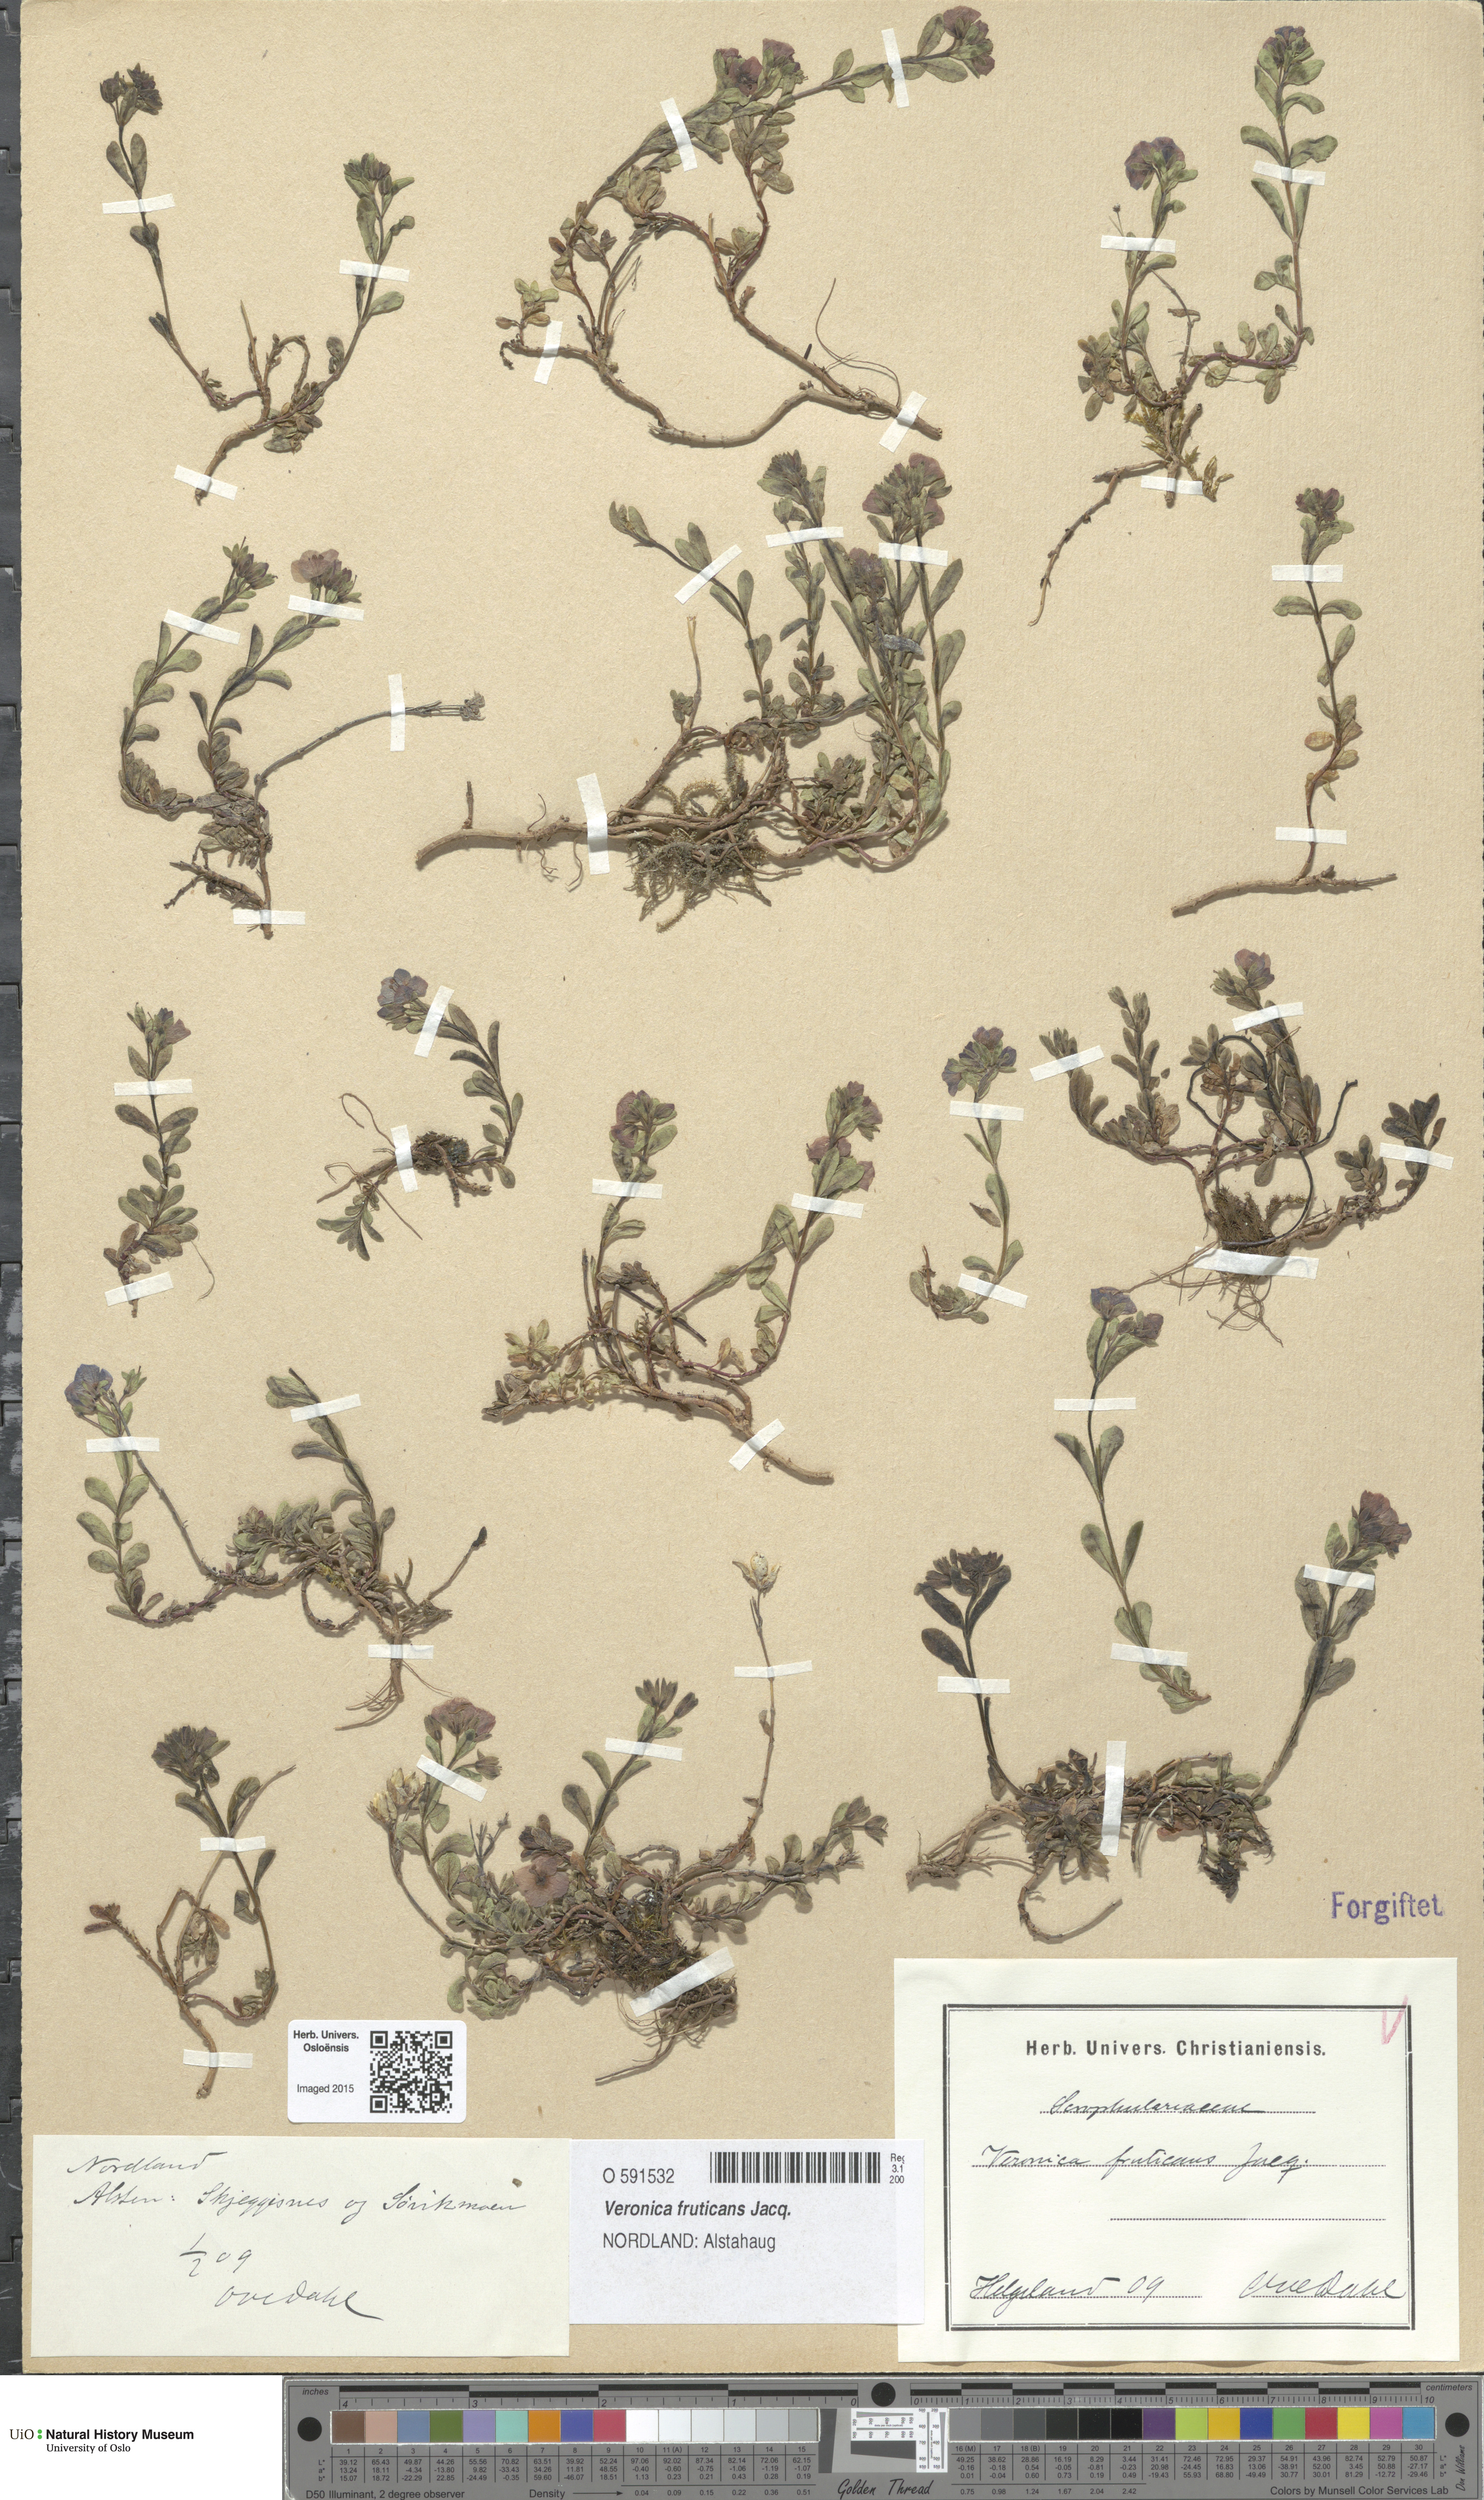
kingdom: Plantae
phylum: Tracheophyta
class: Magnoliopsida
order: Lamiales
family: Plantaginaceae
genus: Veronica
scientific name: Veronica fruticans
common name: Rock speedwell
